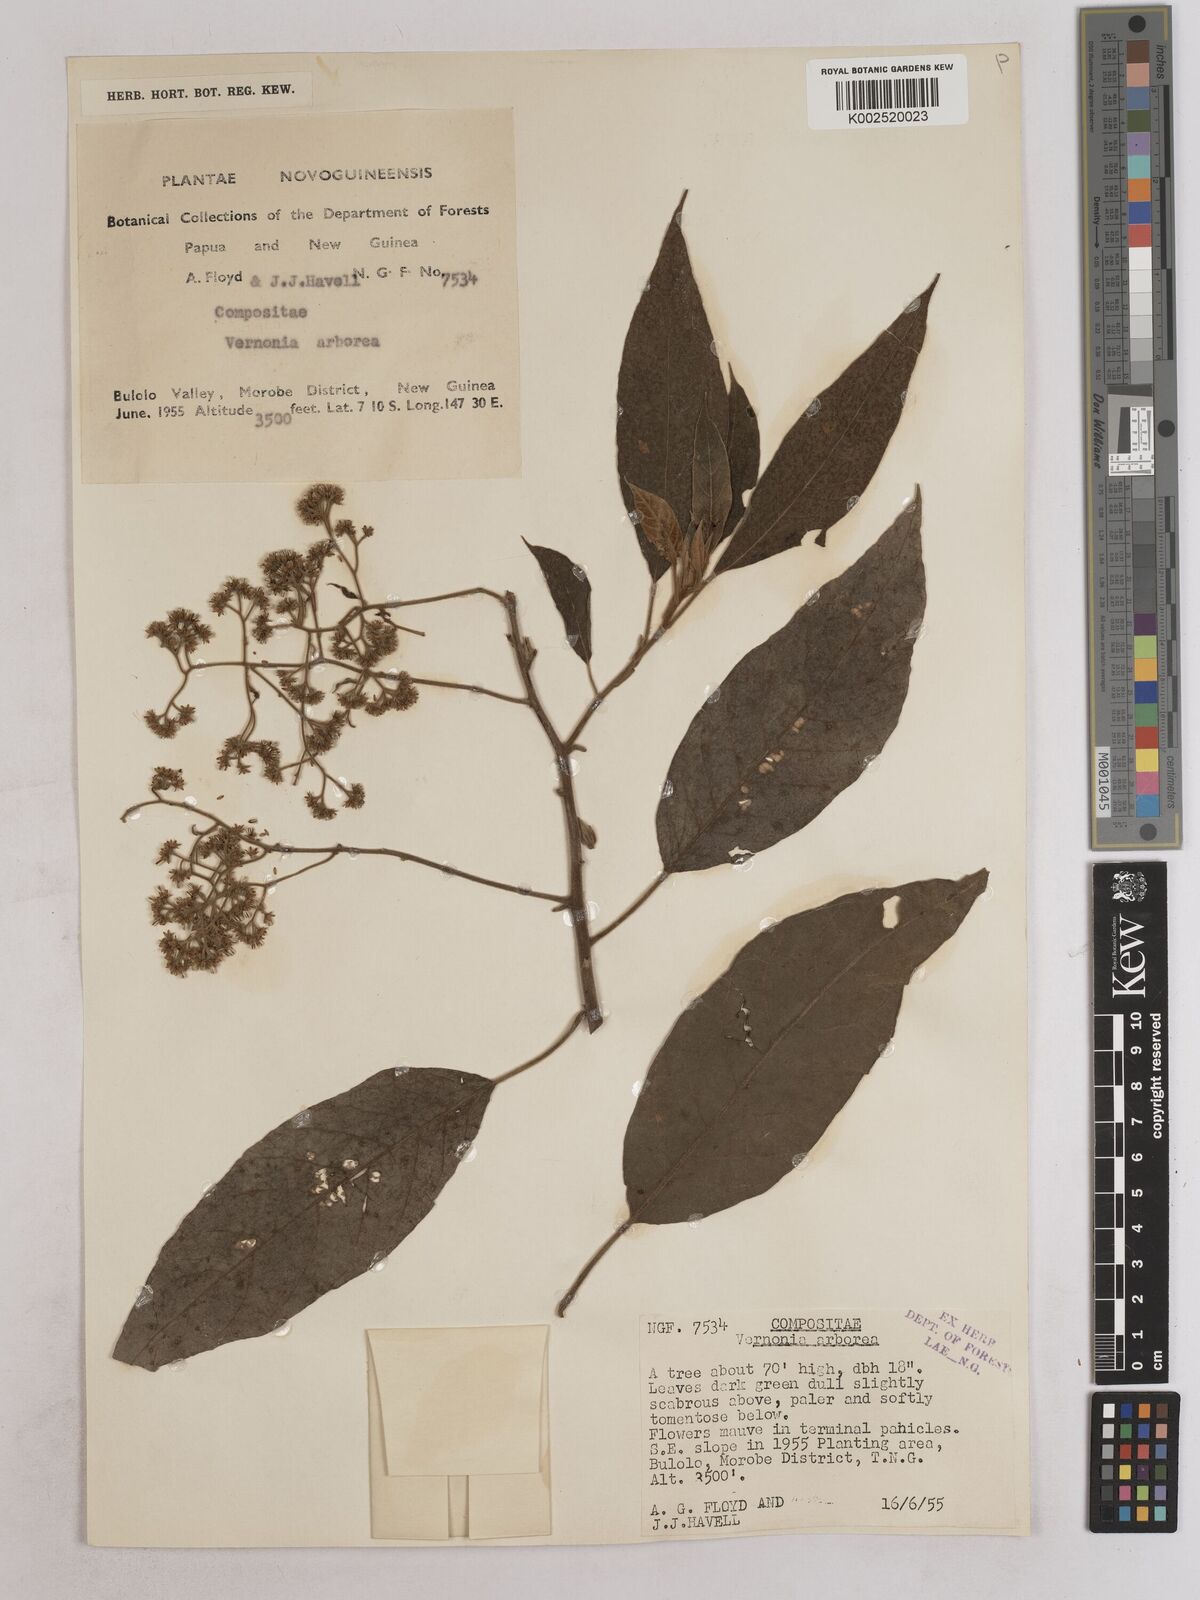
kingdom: Plantae
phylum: Tracheophyta
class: Magnoliopsida
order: Asterales
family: Asteraceae
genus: Strobocalyx
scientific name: Strobocalyx arborea
